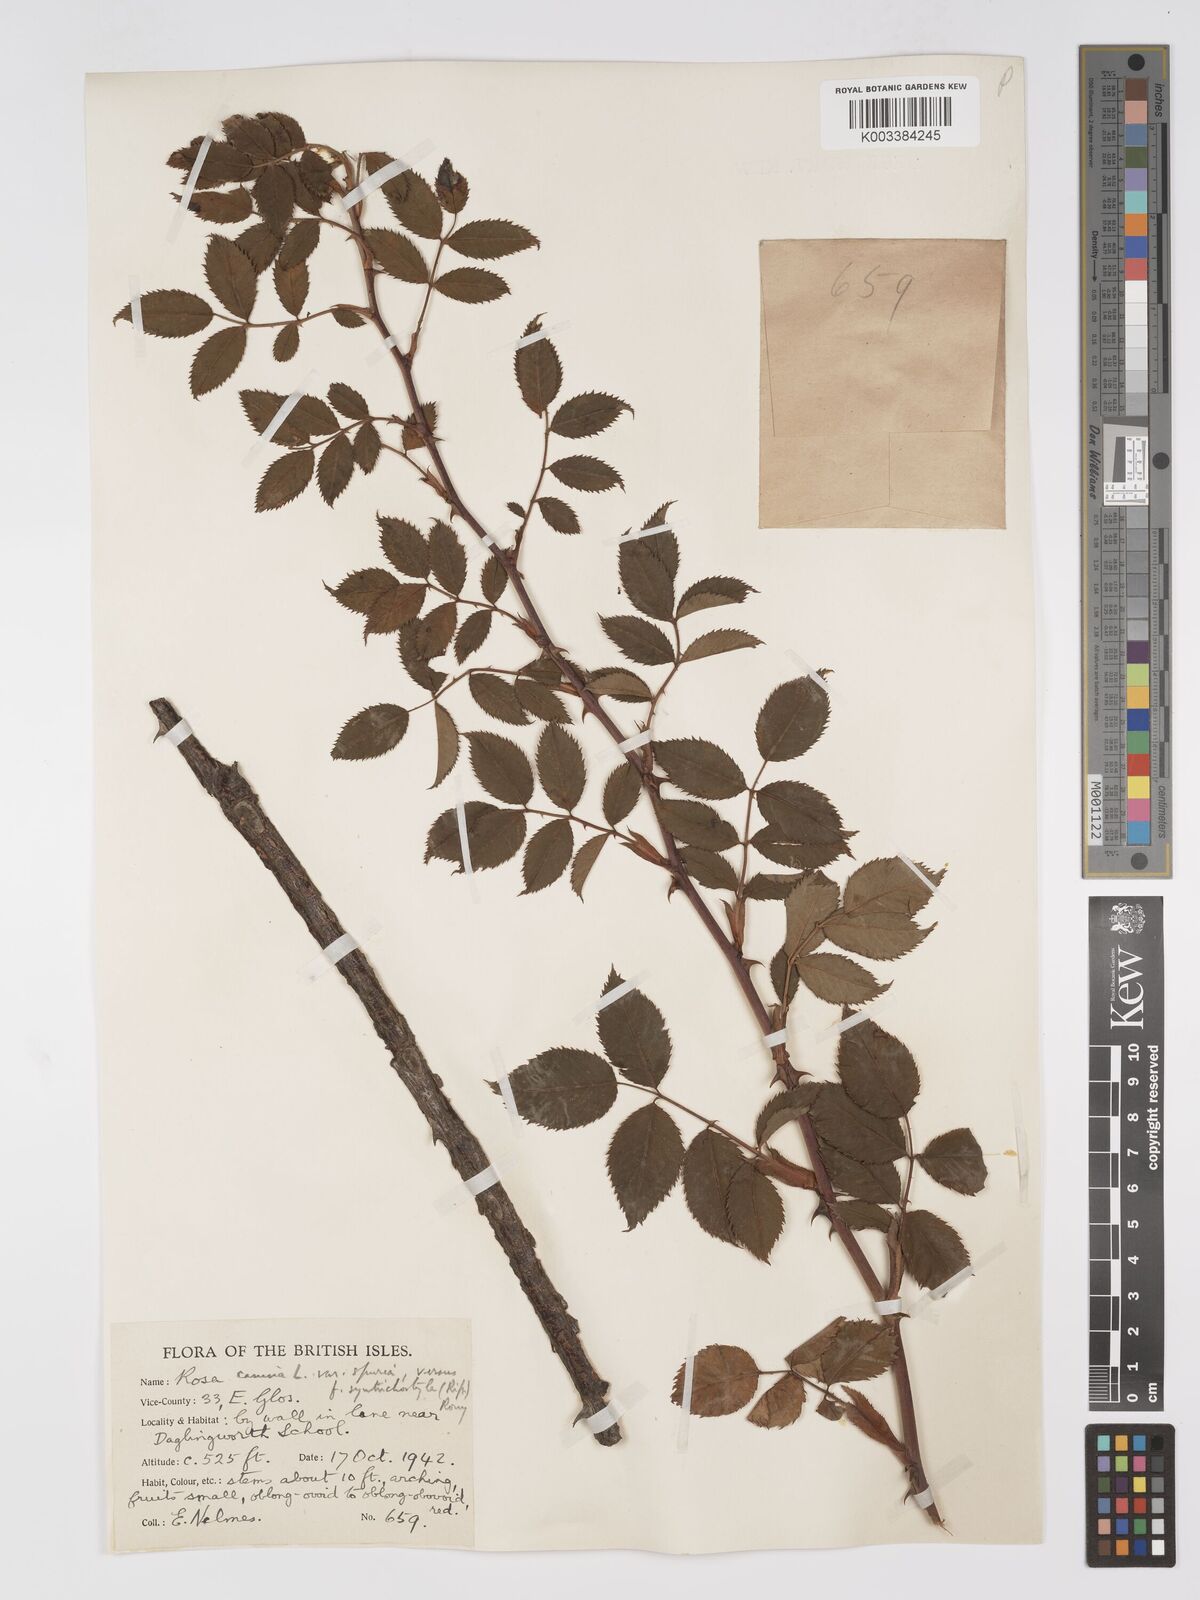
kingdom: Plantae
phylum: Tracheophyta
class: Magnoliopsida
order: Rosales
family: Rosaceae
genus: Rosa
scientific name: Rosa canina
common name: Dog rose
